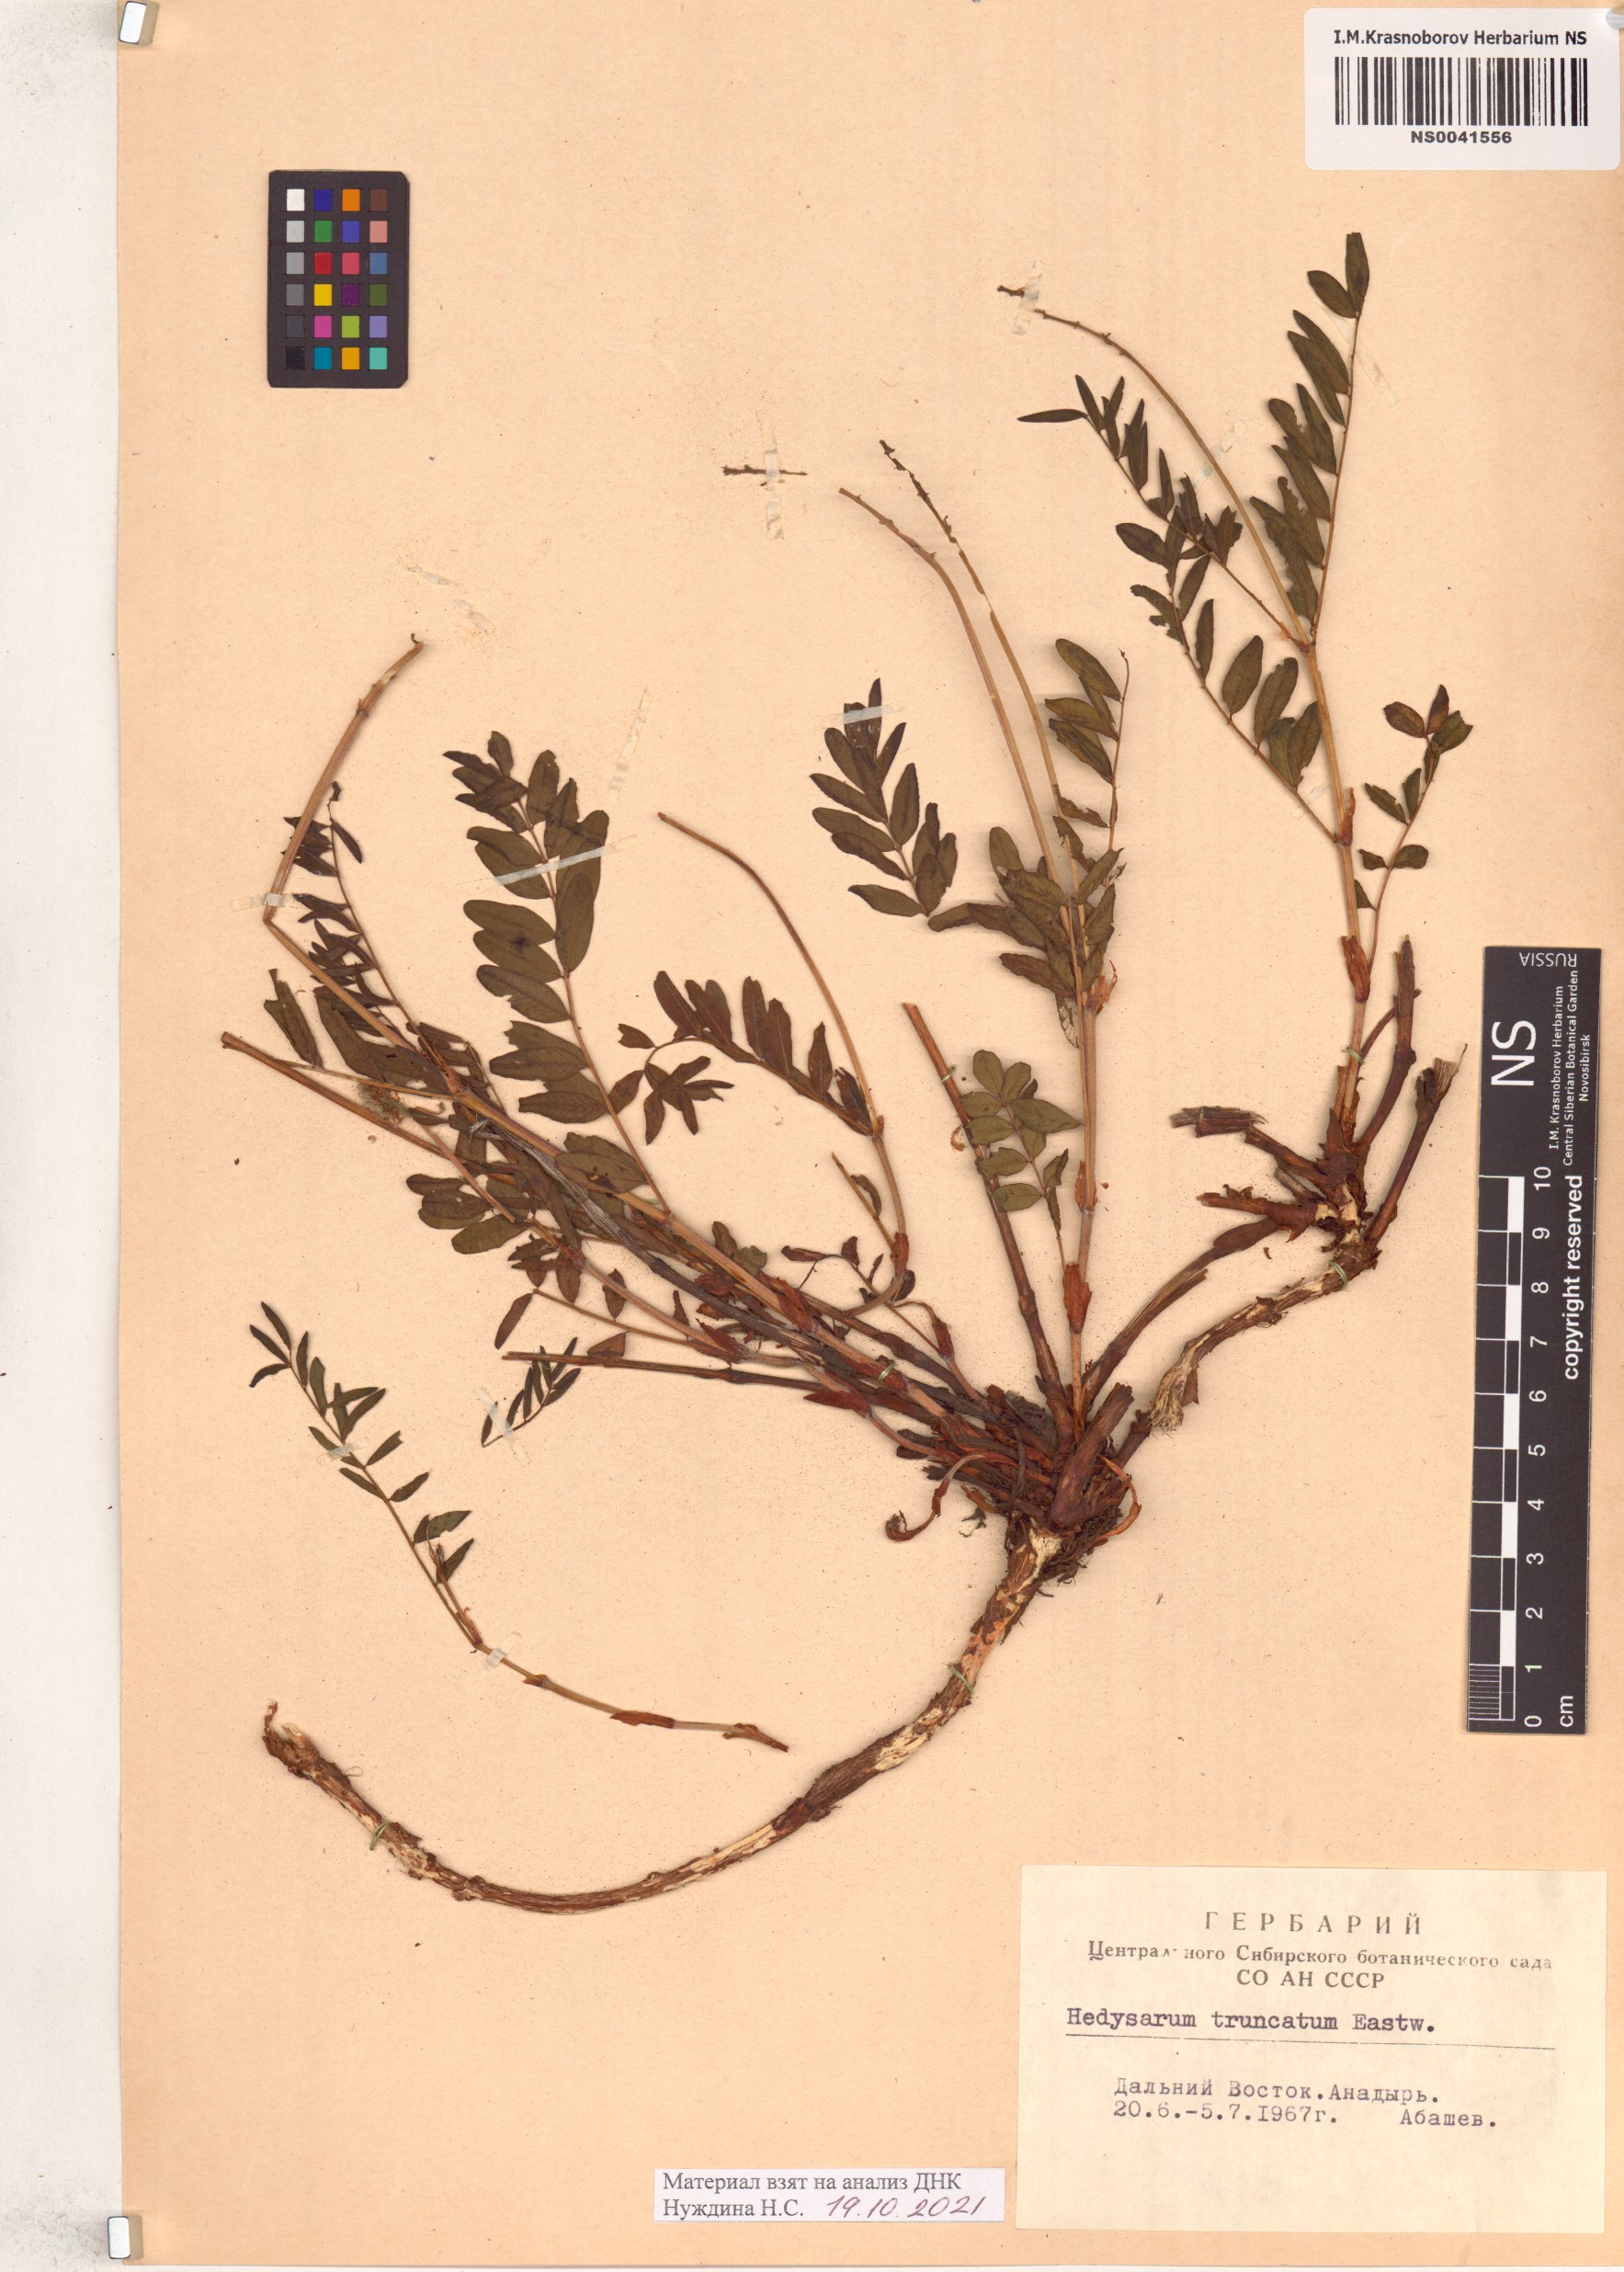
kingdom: Plantae
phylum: Tracheophyta
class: Magnoliopsida
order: Fabales
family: Fabaceae
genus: Hedysarum
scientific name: Hedysarum truncatum
